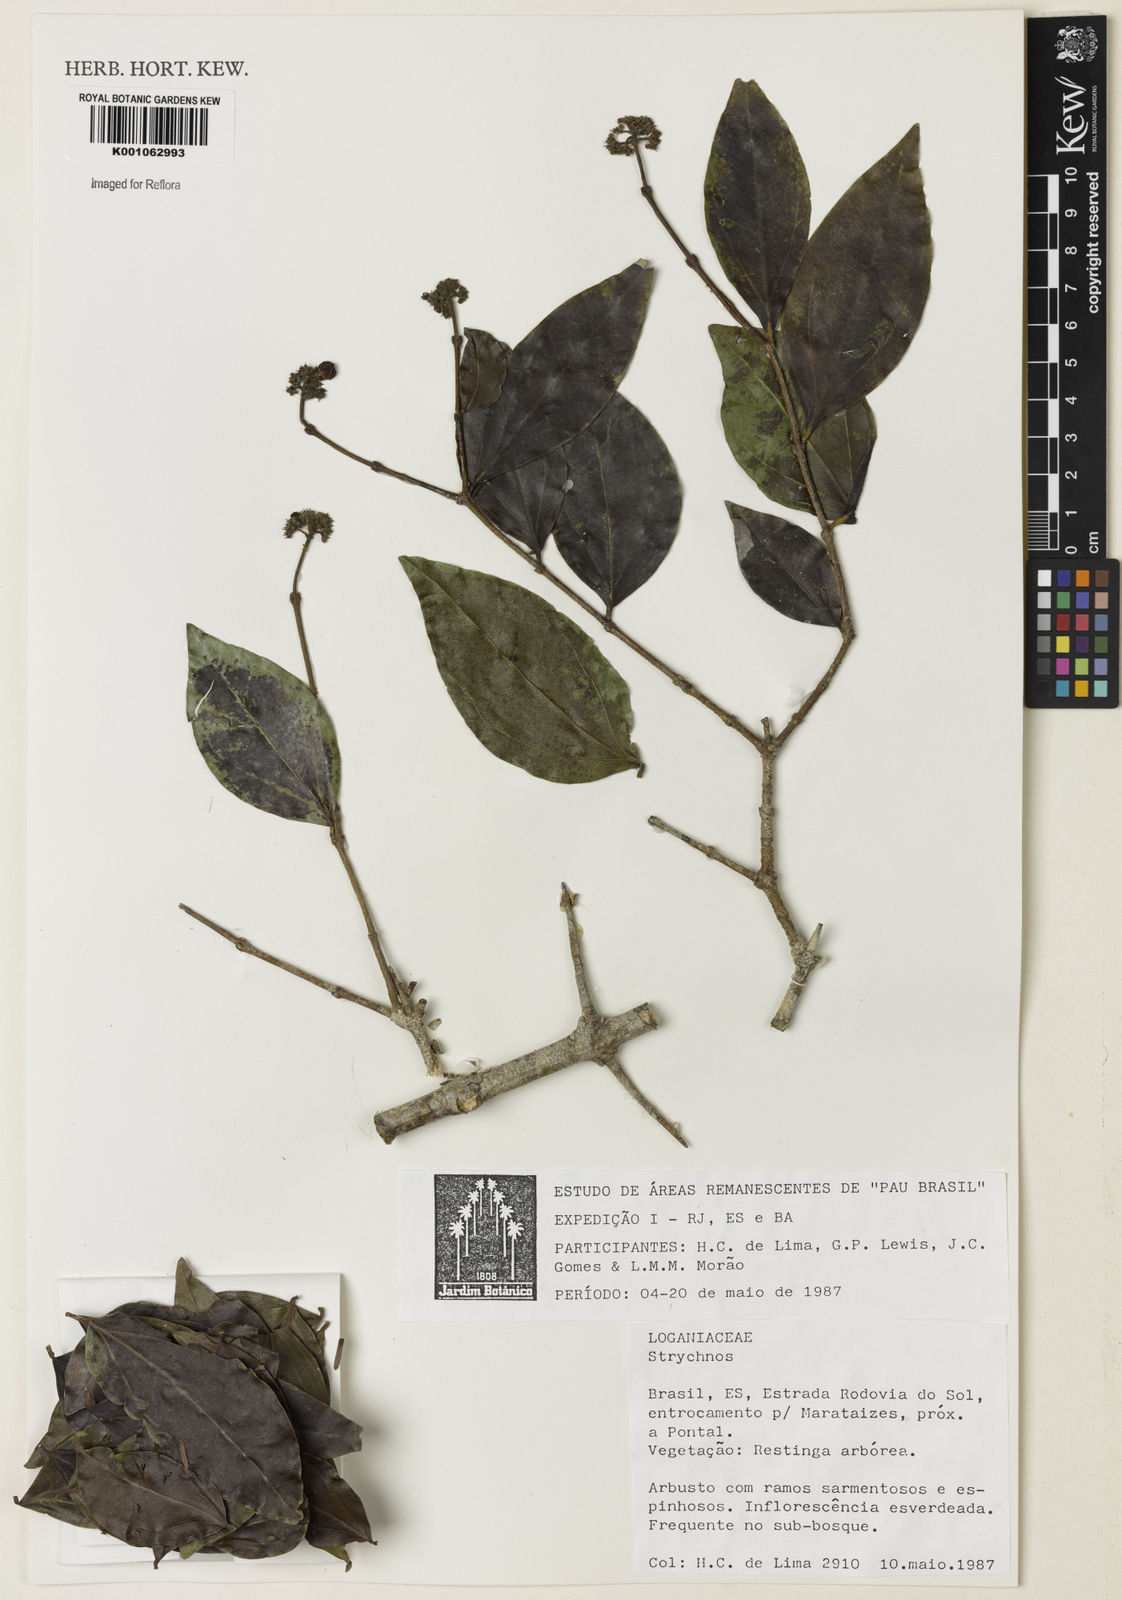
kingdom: Plantae
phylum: Tracheophyta
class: Magnoliopsida
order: Gentianales
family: Loganiaceae
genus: Strychnos
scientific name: Strychnos
